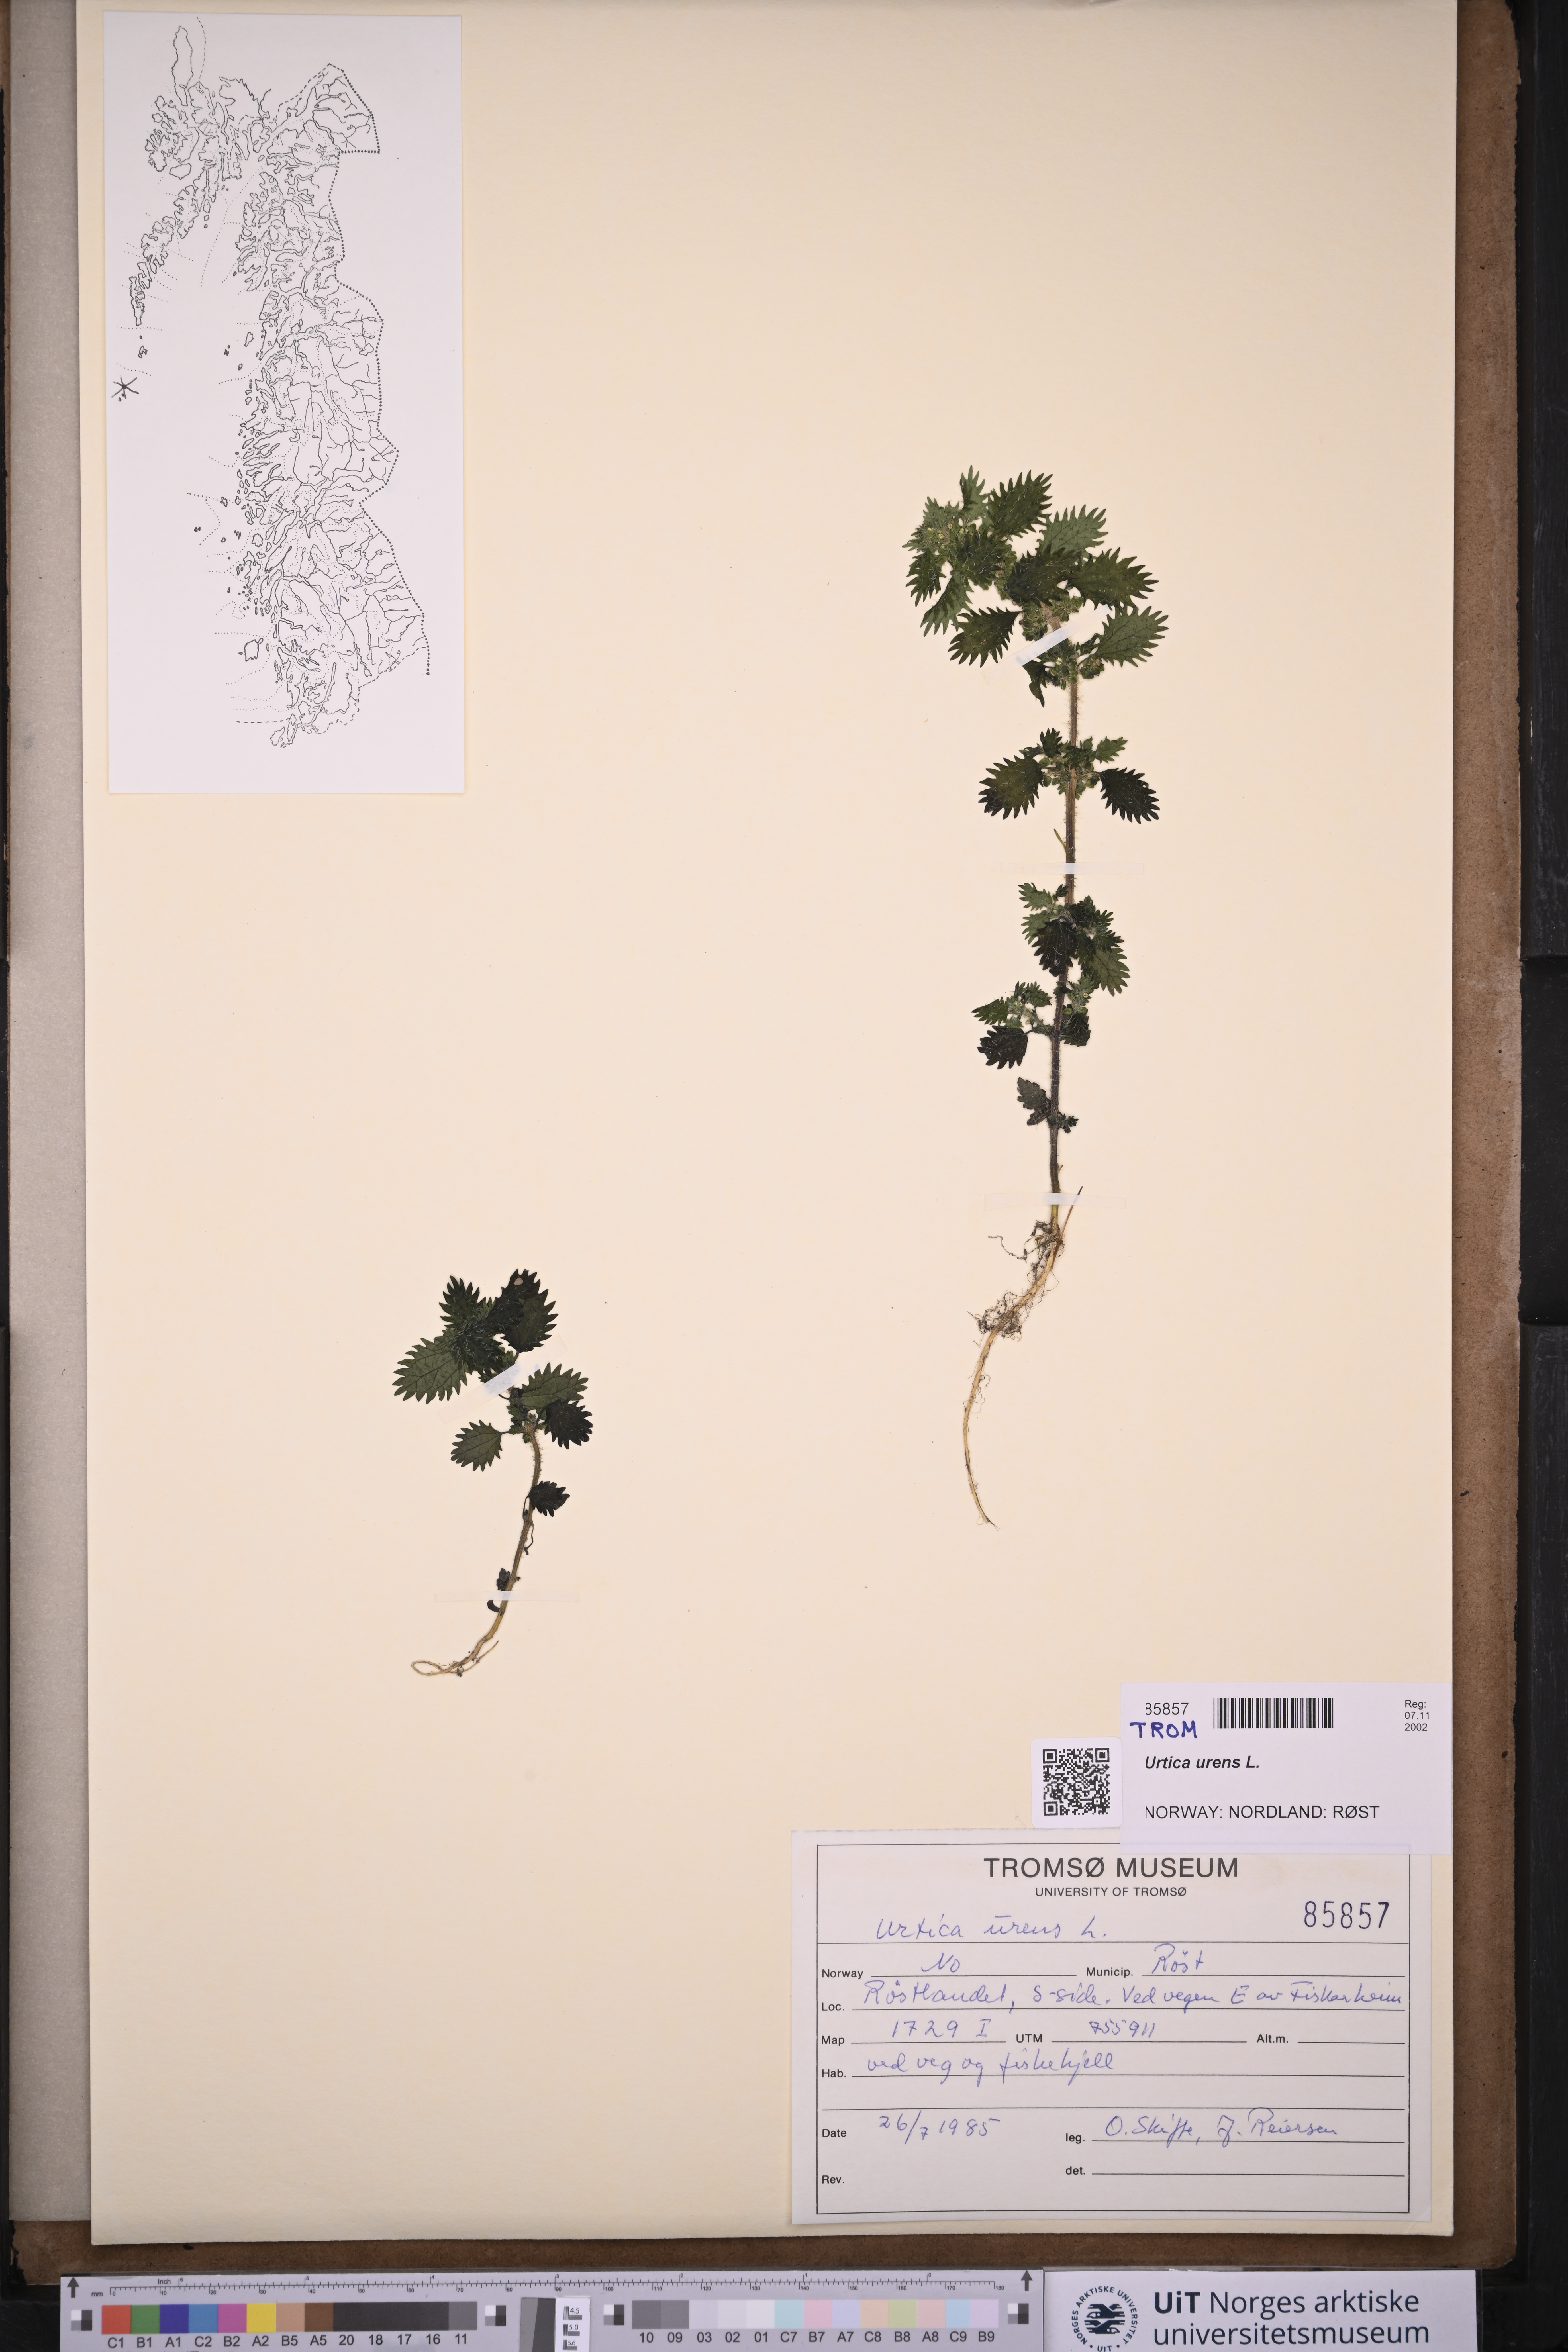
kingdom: Plantae
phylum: Tracheophyta
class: Magnoliopsida
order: Rosales
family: Urticaceae
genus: Urtica
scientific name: Urtica urens
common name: Dwarf nettle
